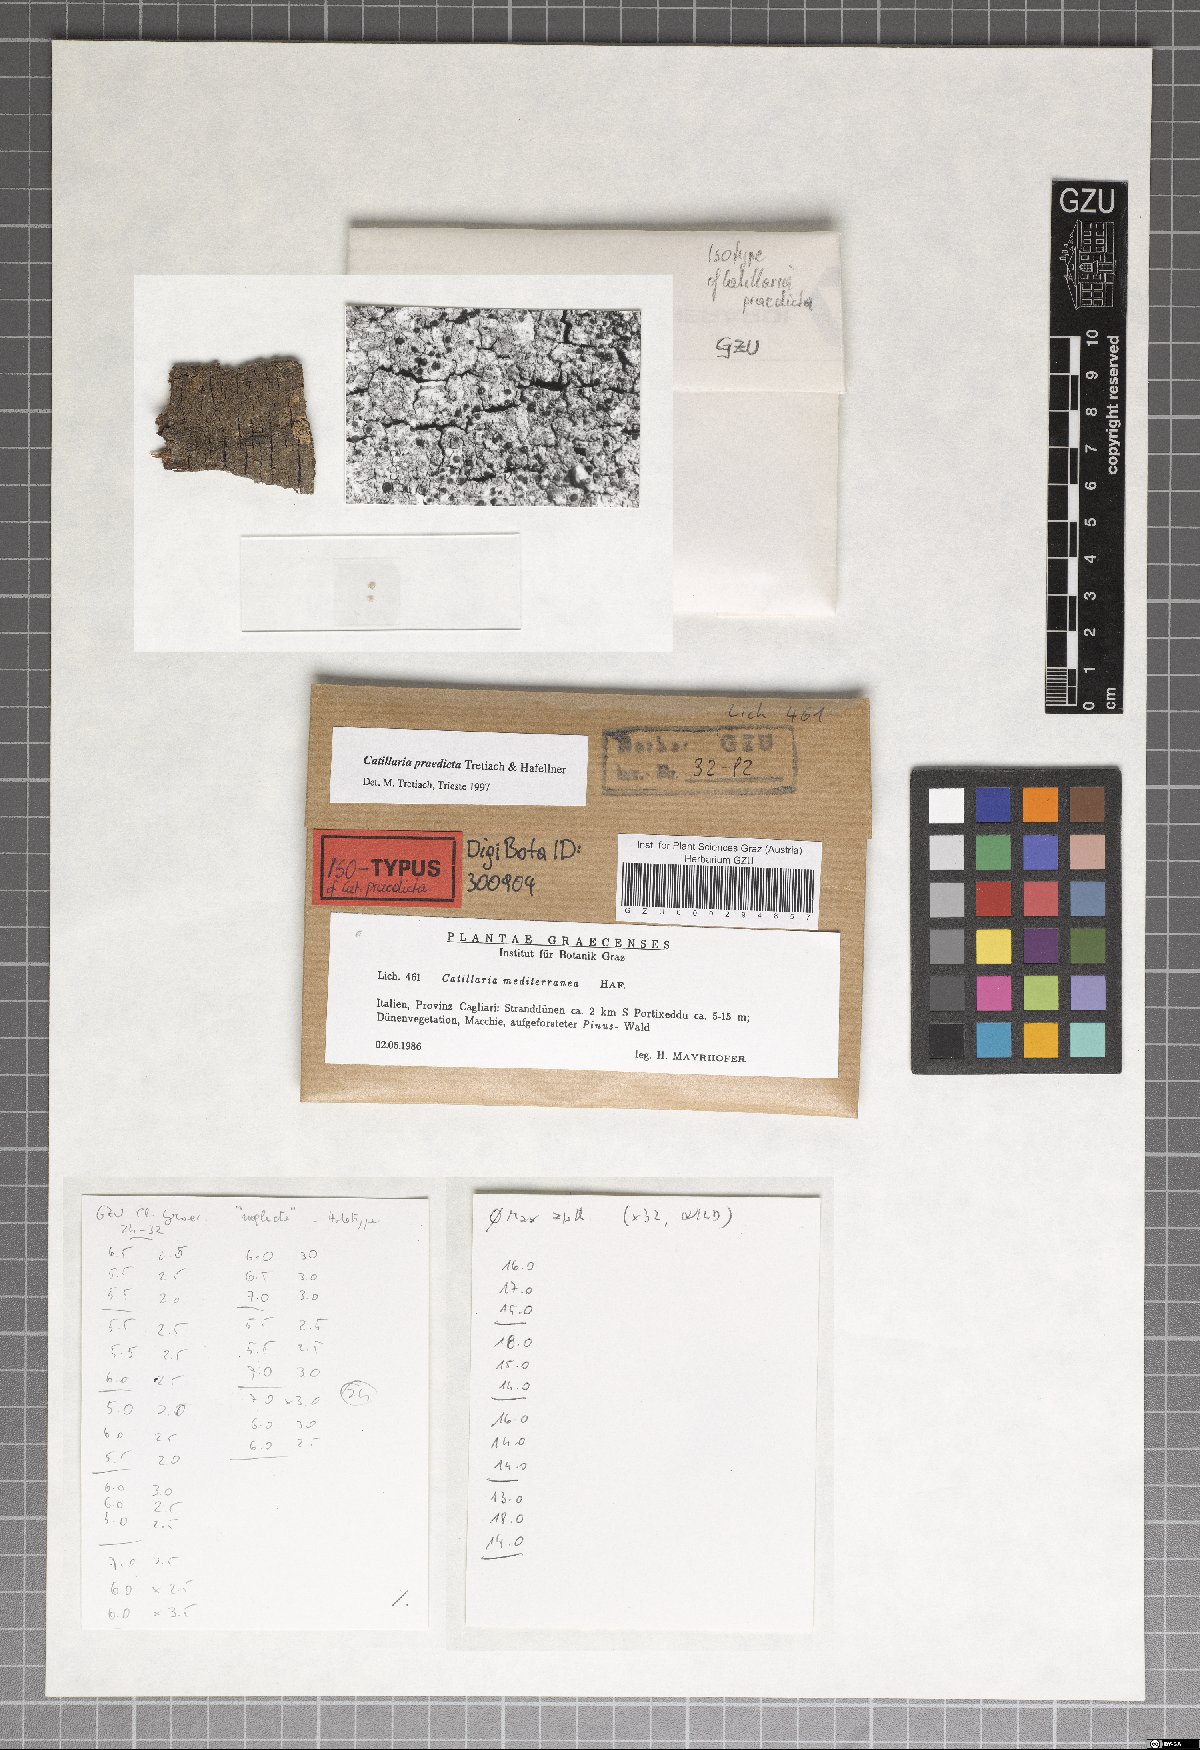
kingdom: Fungi
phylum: Ascomycota
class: Lecanoromycetes
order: Lecanorales
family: Catillariaceae
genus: Catillaria
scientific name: Catillaria
